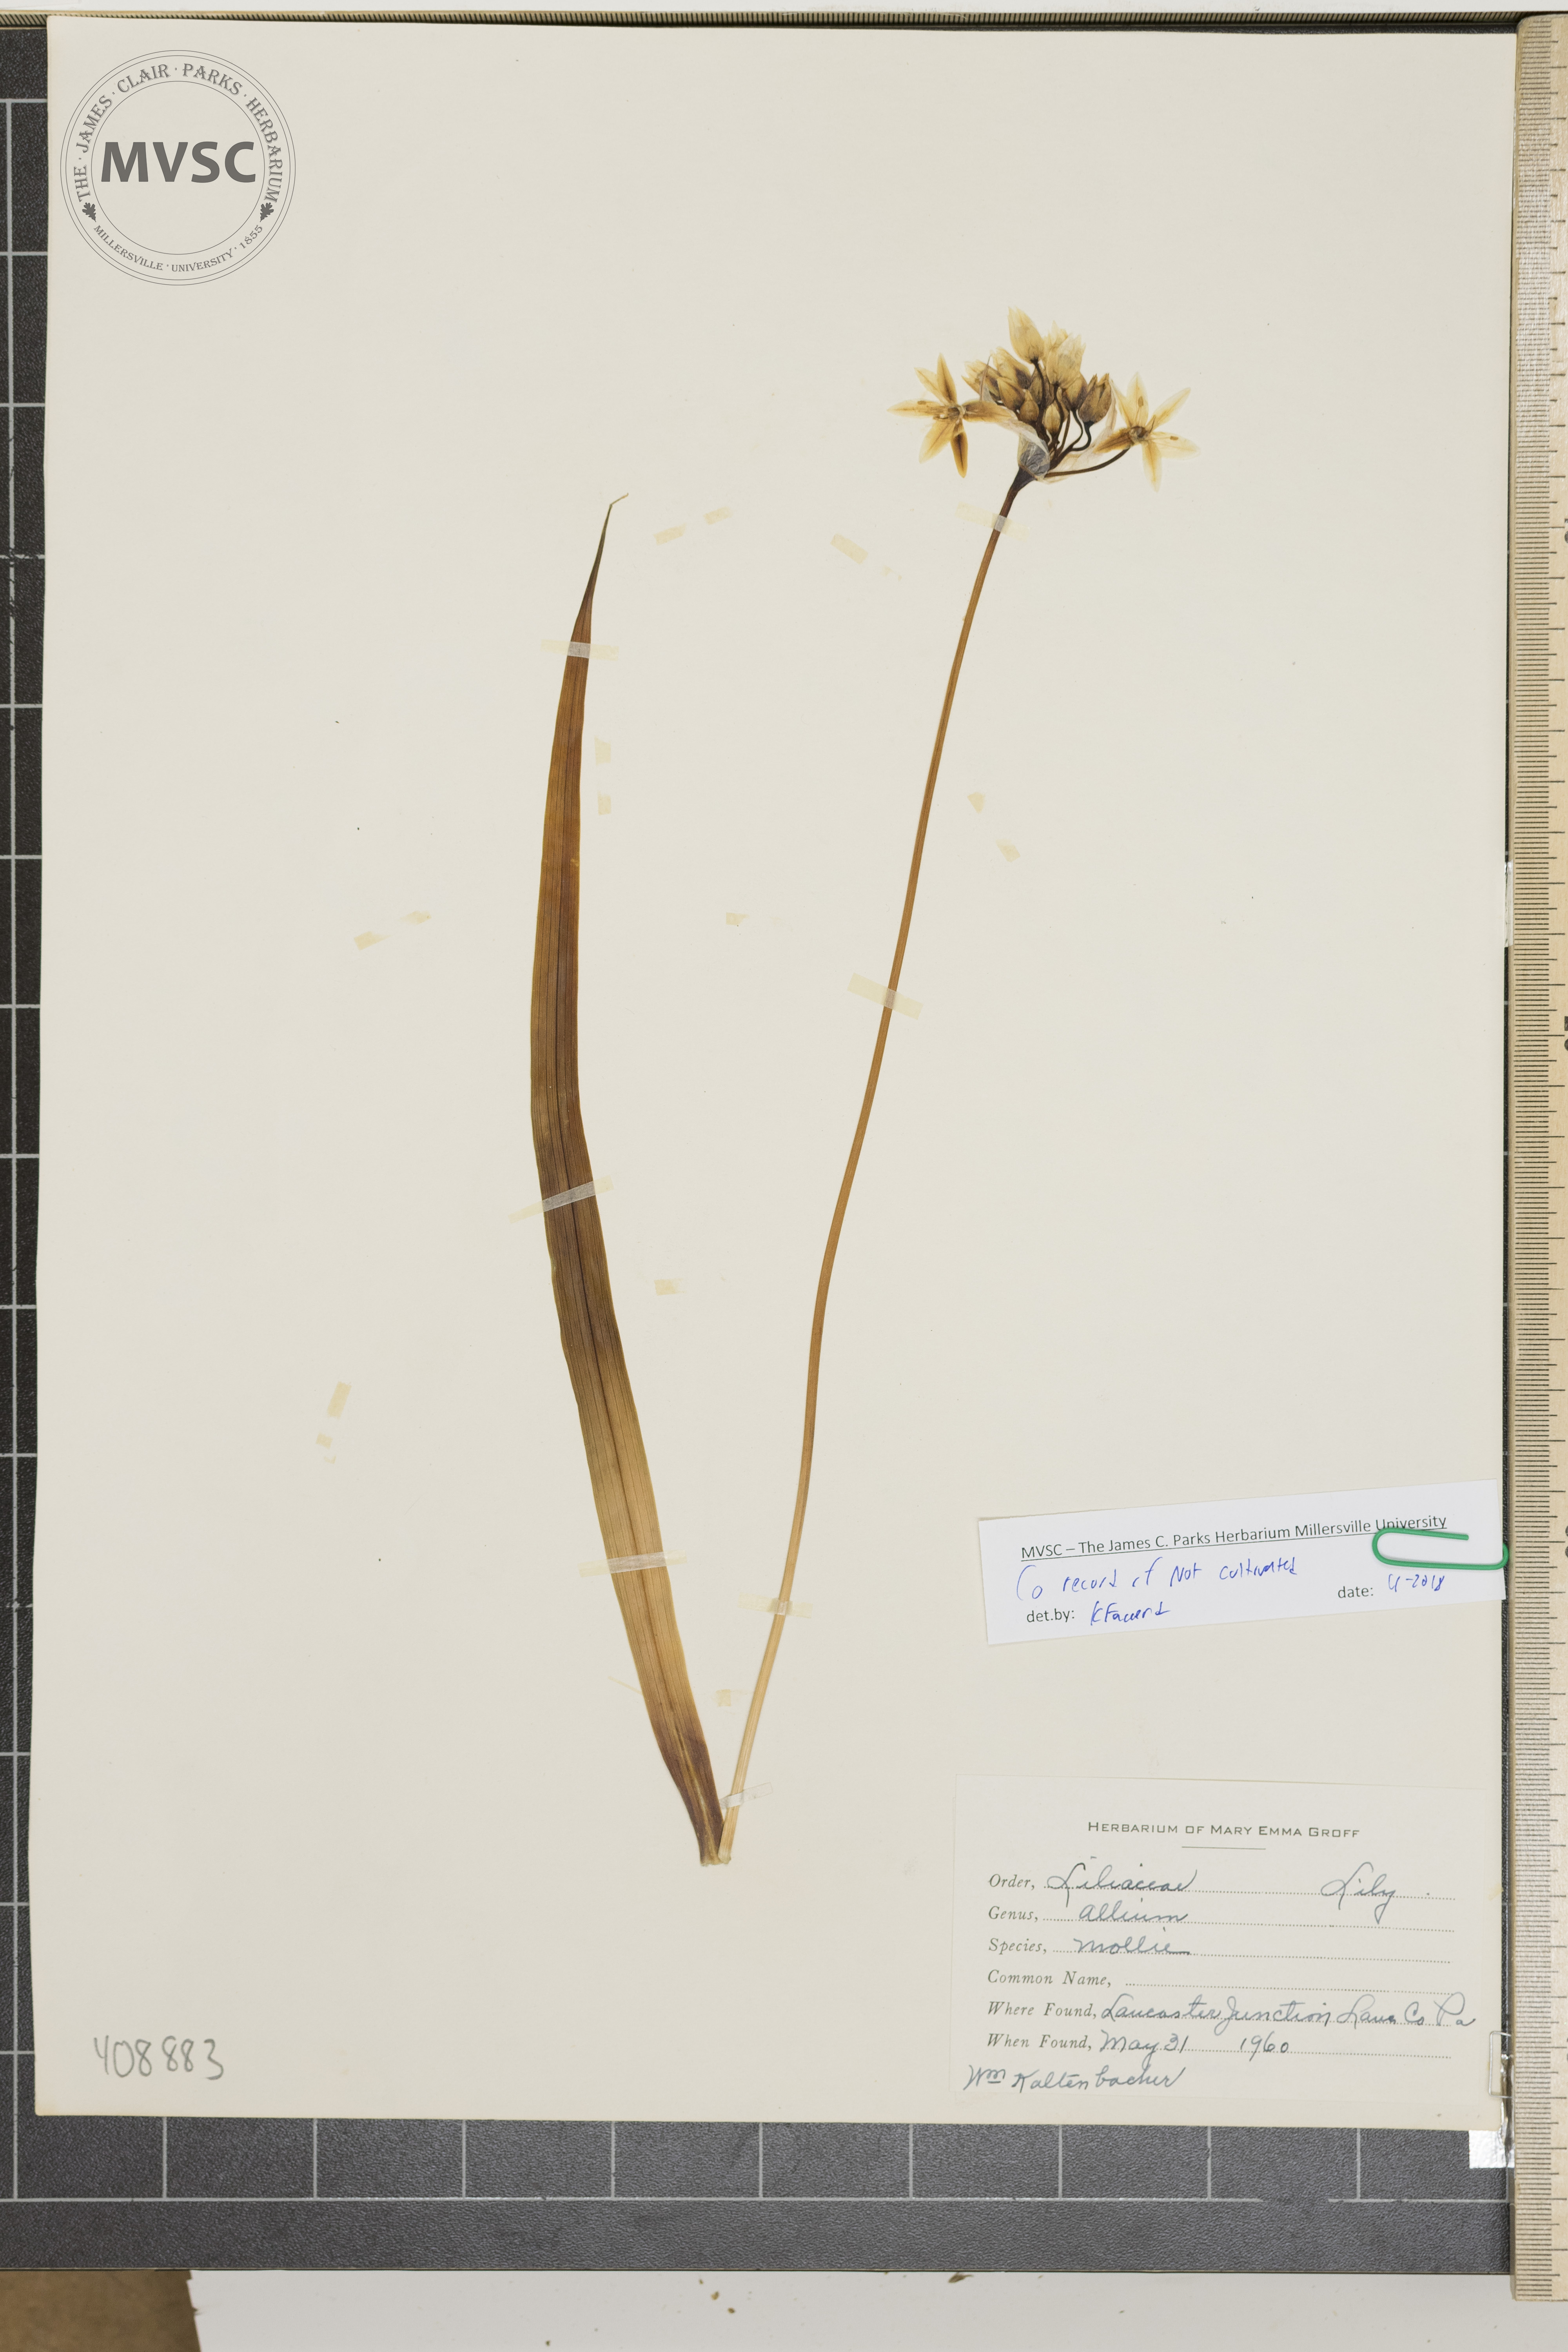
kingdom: Plantae
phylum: Tracheophyta
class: Liliopsida
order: Asparagales
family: Amaryllidaceae
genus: Allium
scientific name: Allium moly
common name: Yellow garlic
